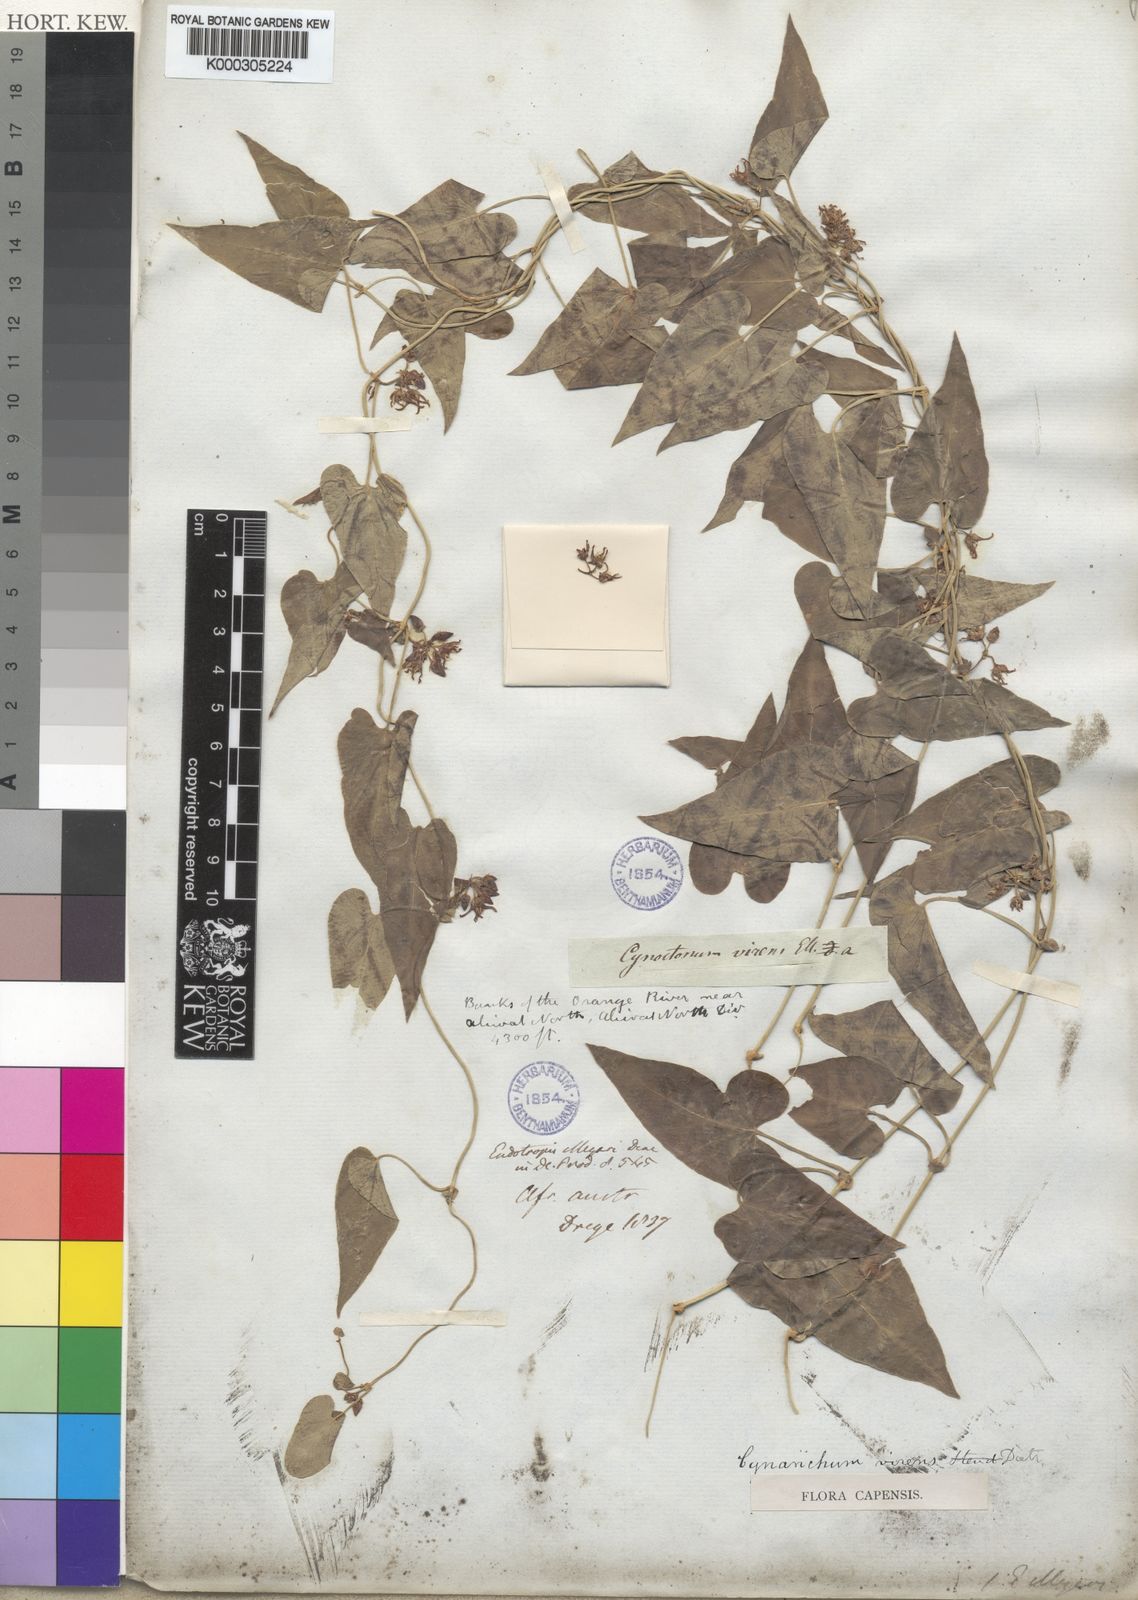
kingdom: Plantae
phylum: Tracheophyta
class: Magnoliopsida
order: Gentianales
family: Apocynaceae
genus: Cynanchum
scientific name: Cynanchum virens
